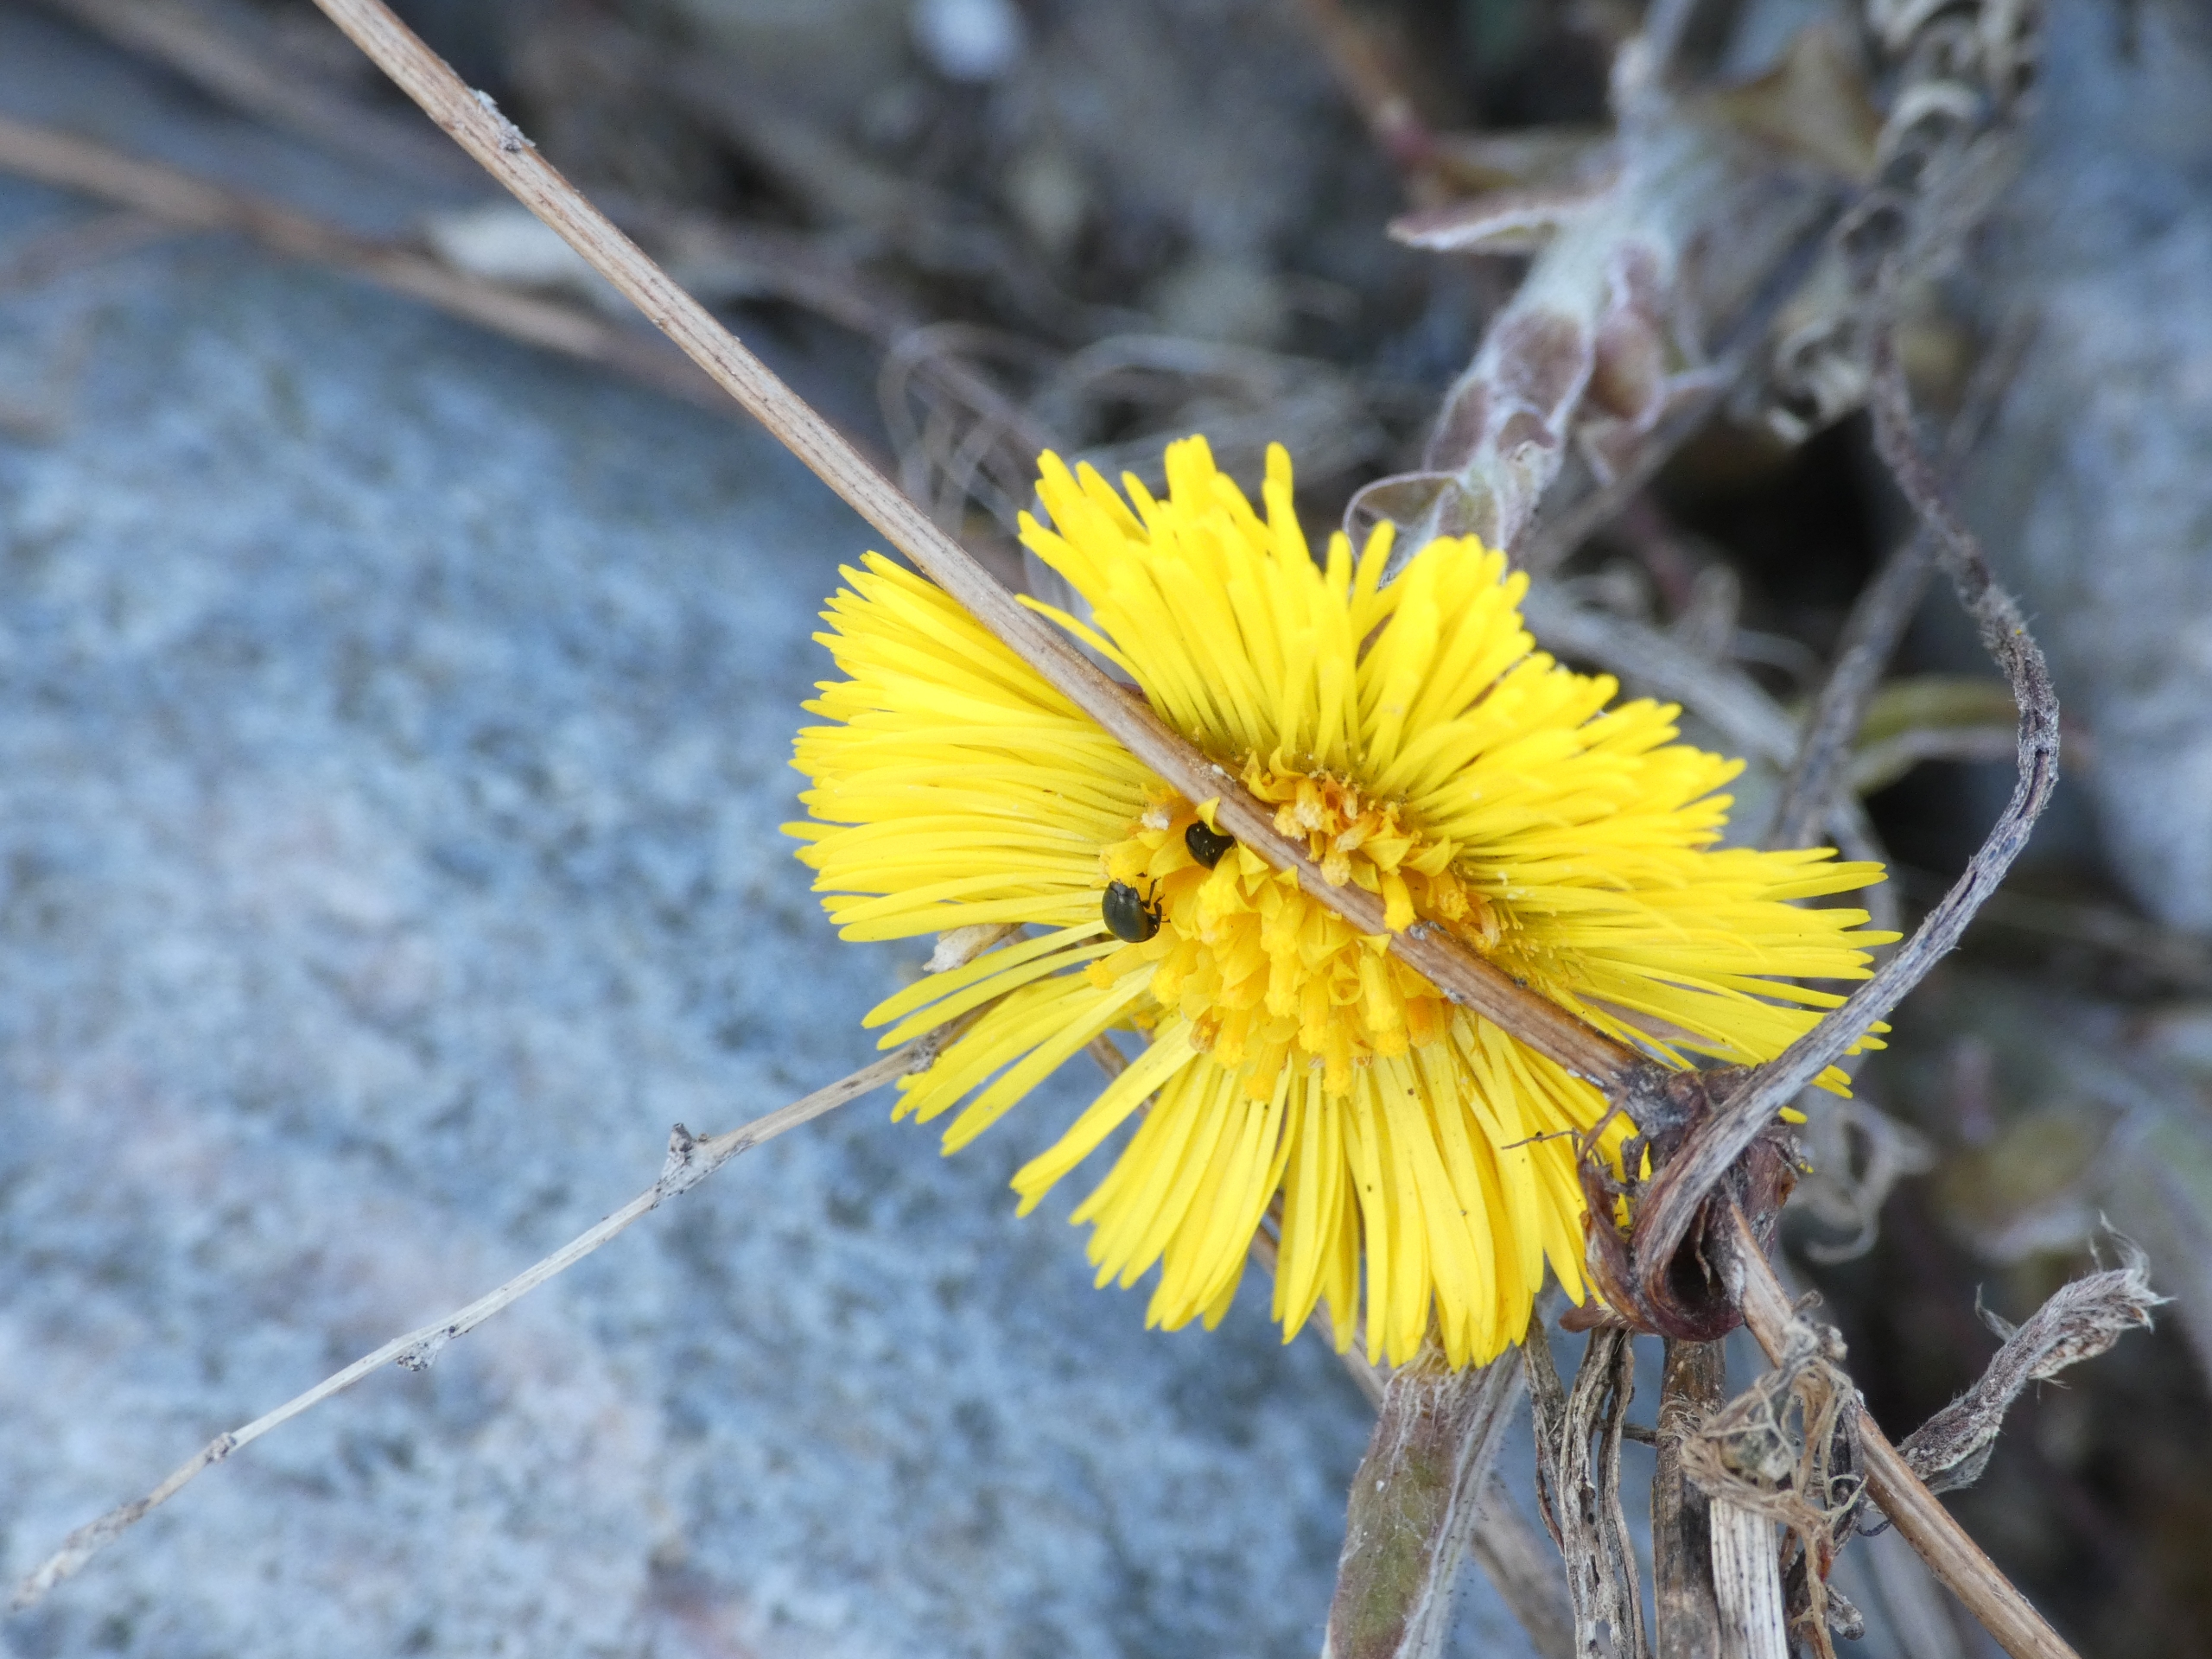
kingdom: Plantae
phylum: Tracheophyta
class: Magnoliopsida
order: Asterales
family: Asteraceae
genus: Tussilago
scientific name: Tussilago farfara
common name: Følfod
